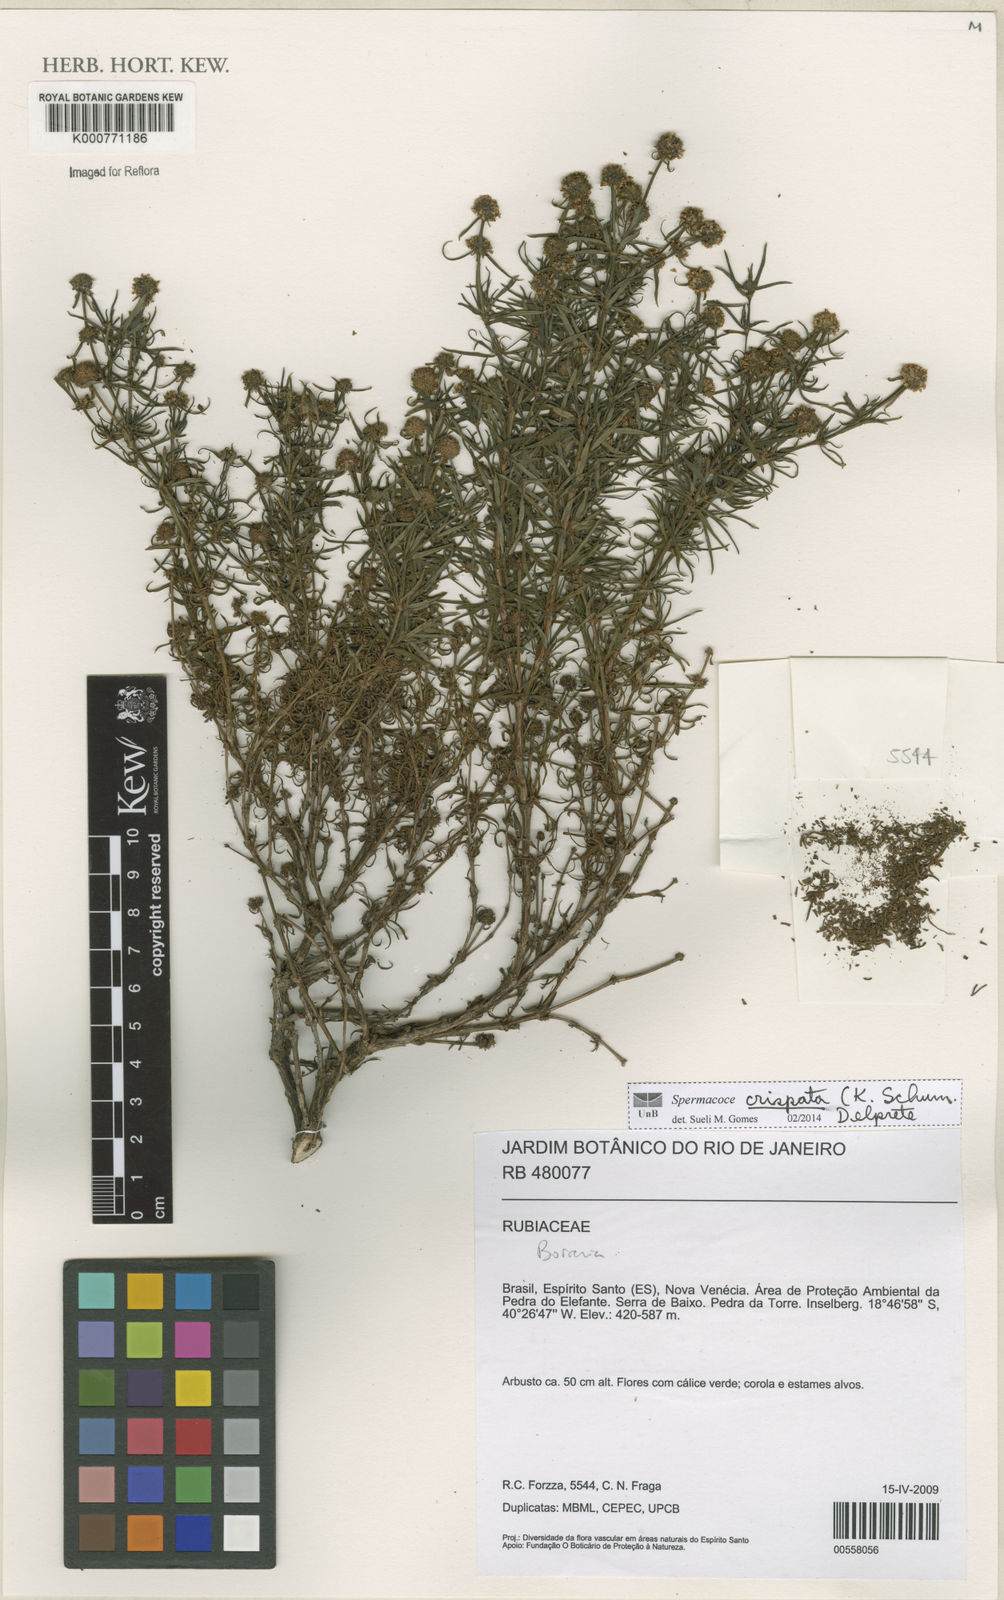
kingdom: Plantae
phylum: Tracheophyta
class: Magnoliopsida
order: Gentianales
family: Rubiaceae
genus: Spermacoce
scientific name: Spermacoce
